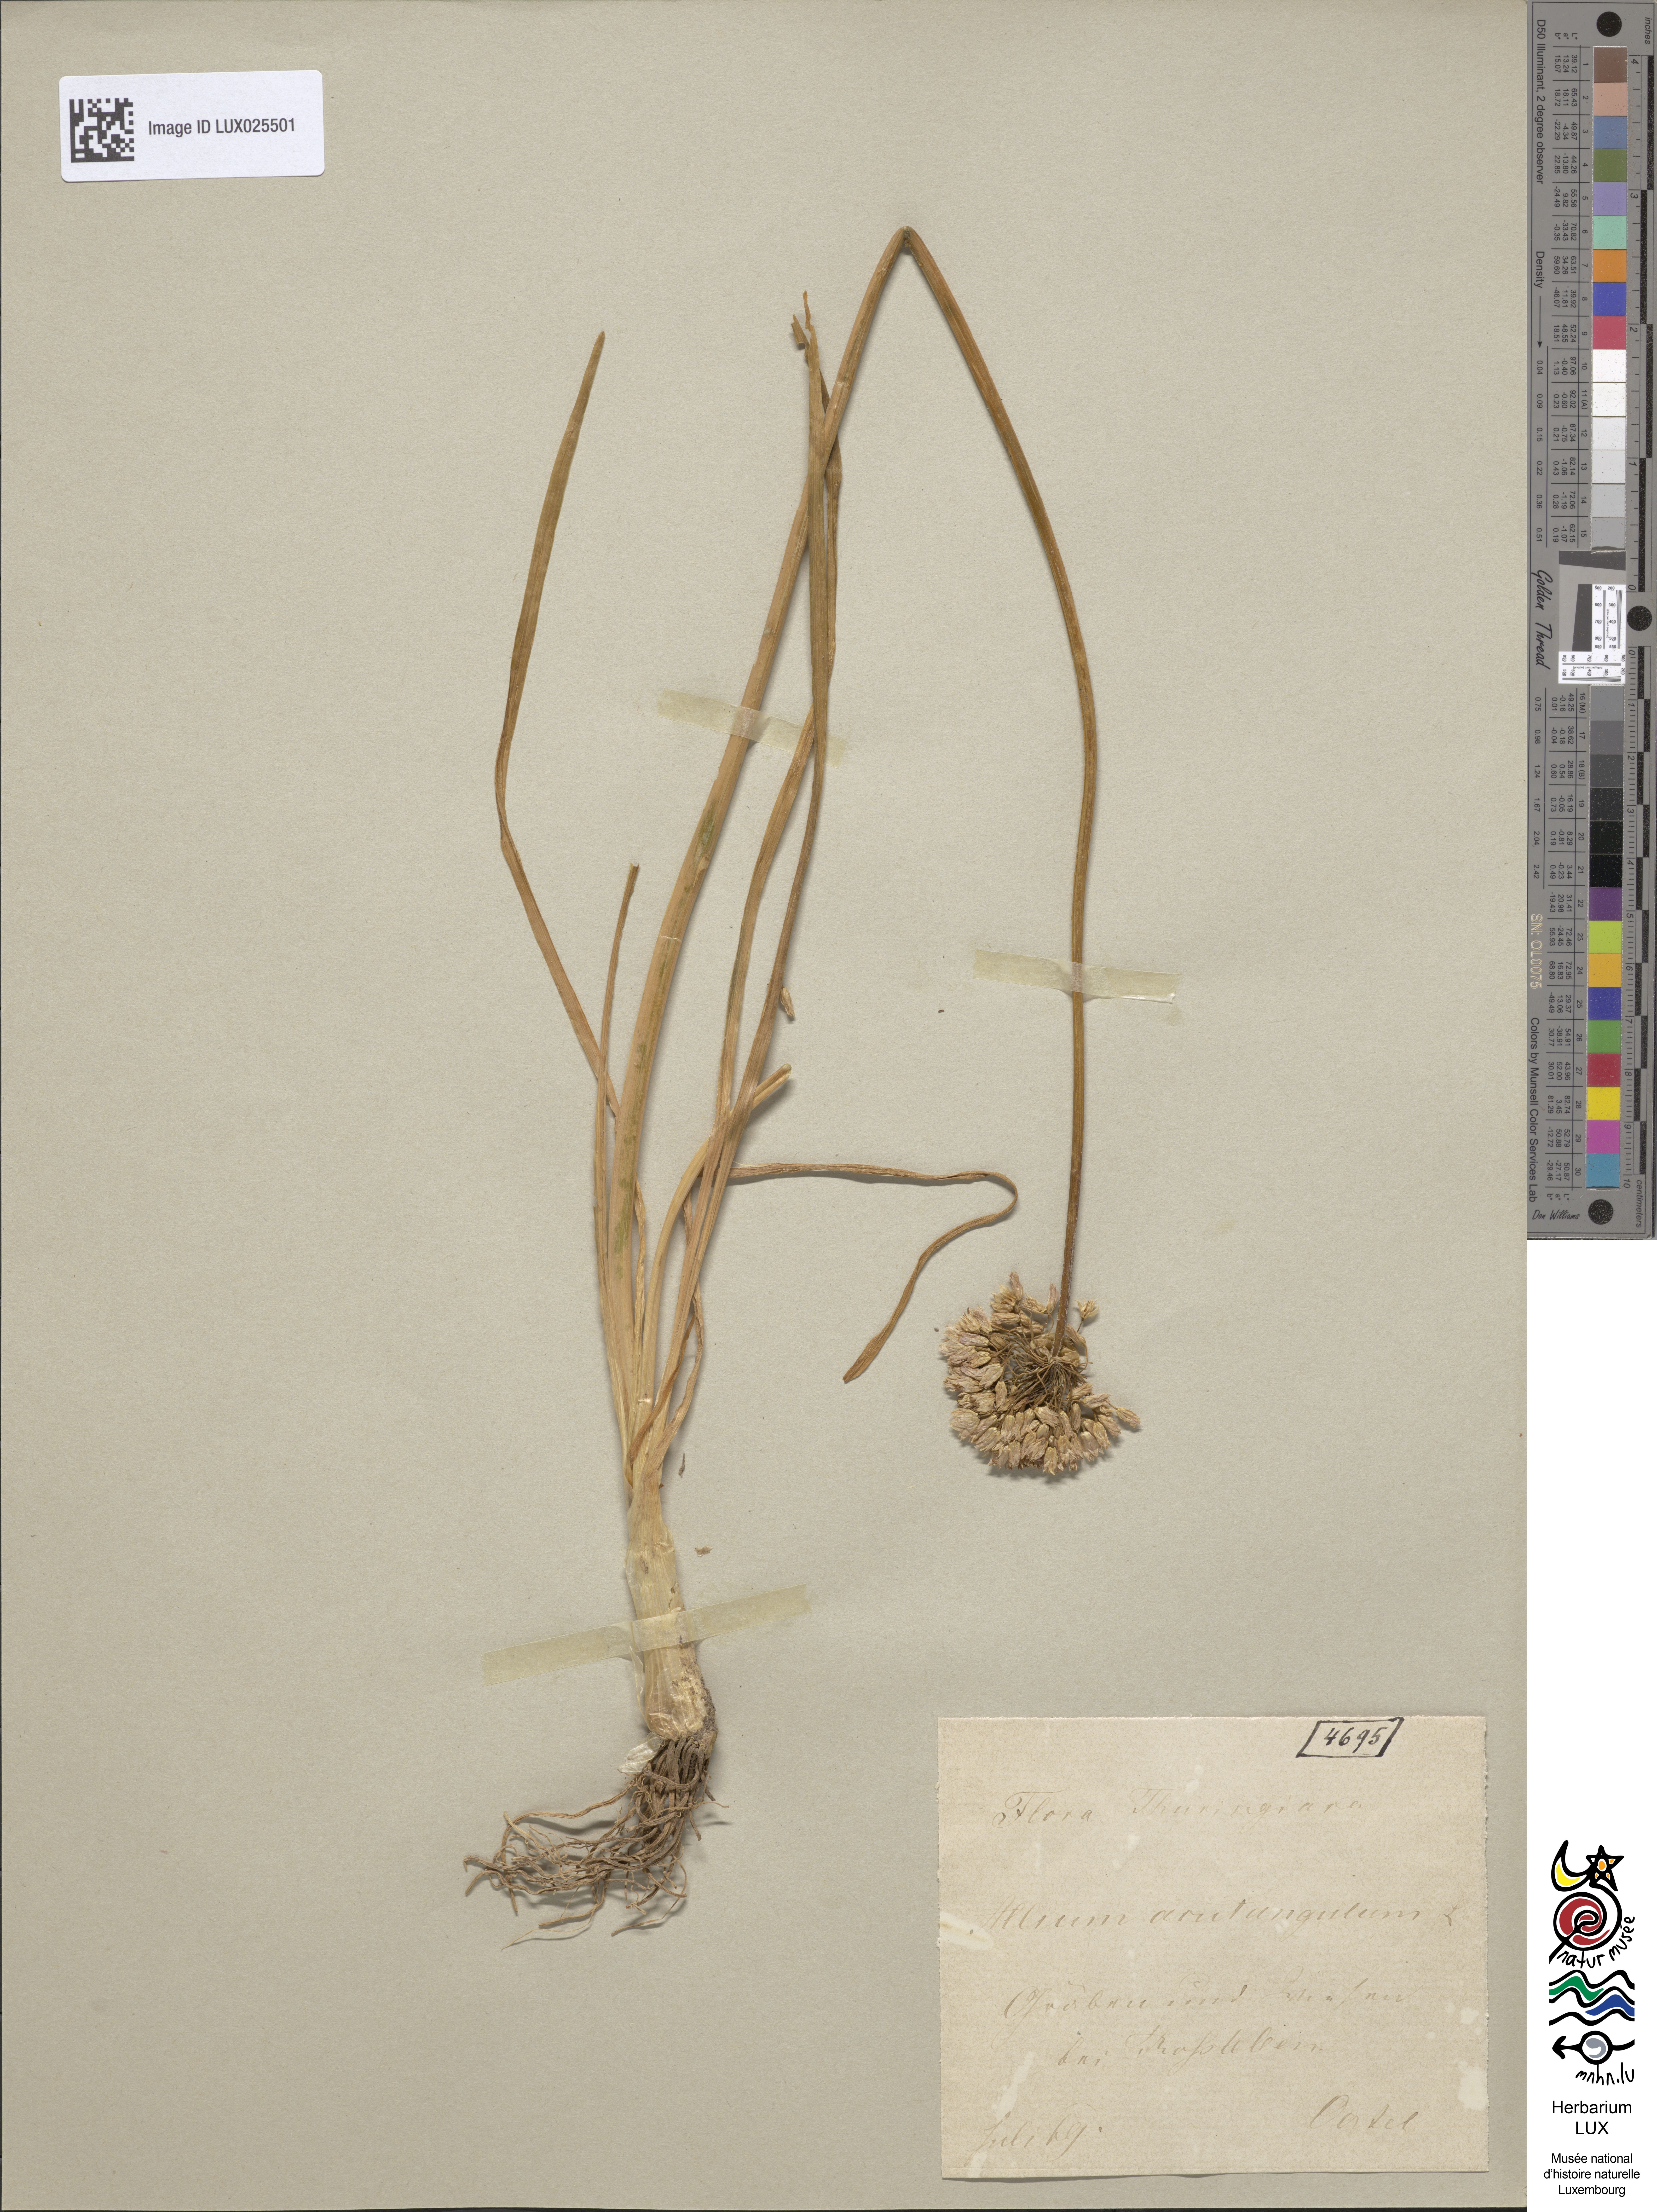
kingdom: Plantae
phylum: Tracheophyta
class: Liliopsida
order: Asparagales
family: Amaryllidaceae
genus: Allium
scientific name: Allium angulosum
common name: Mouse garlic
